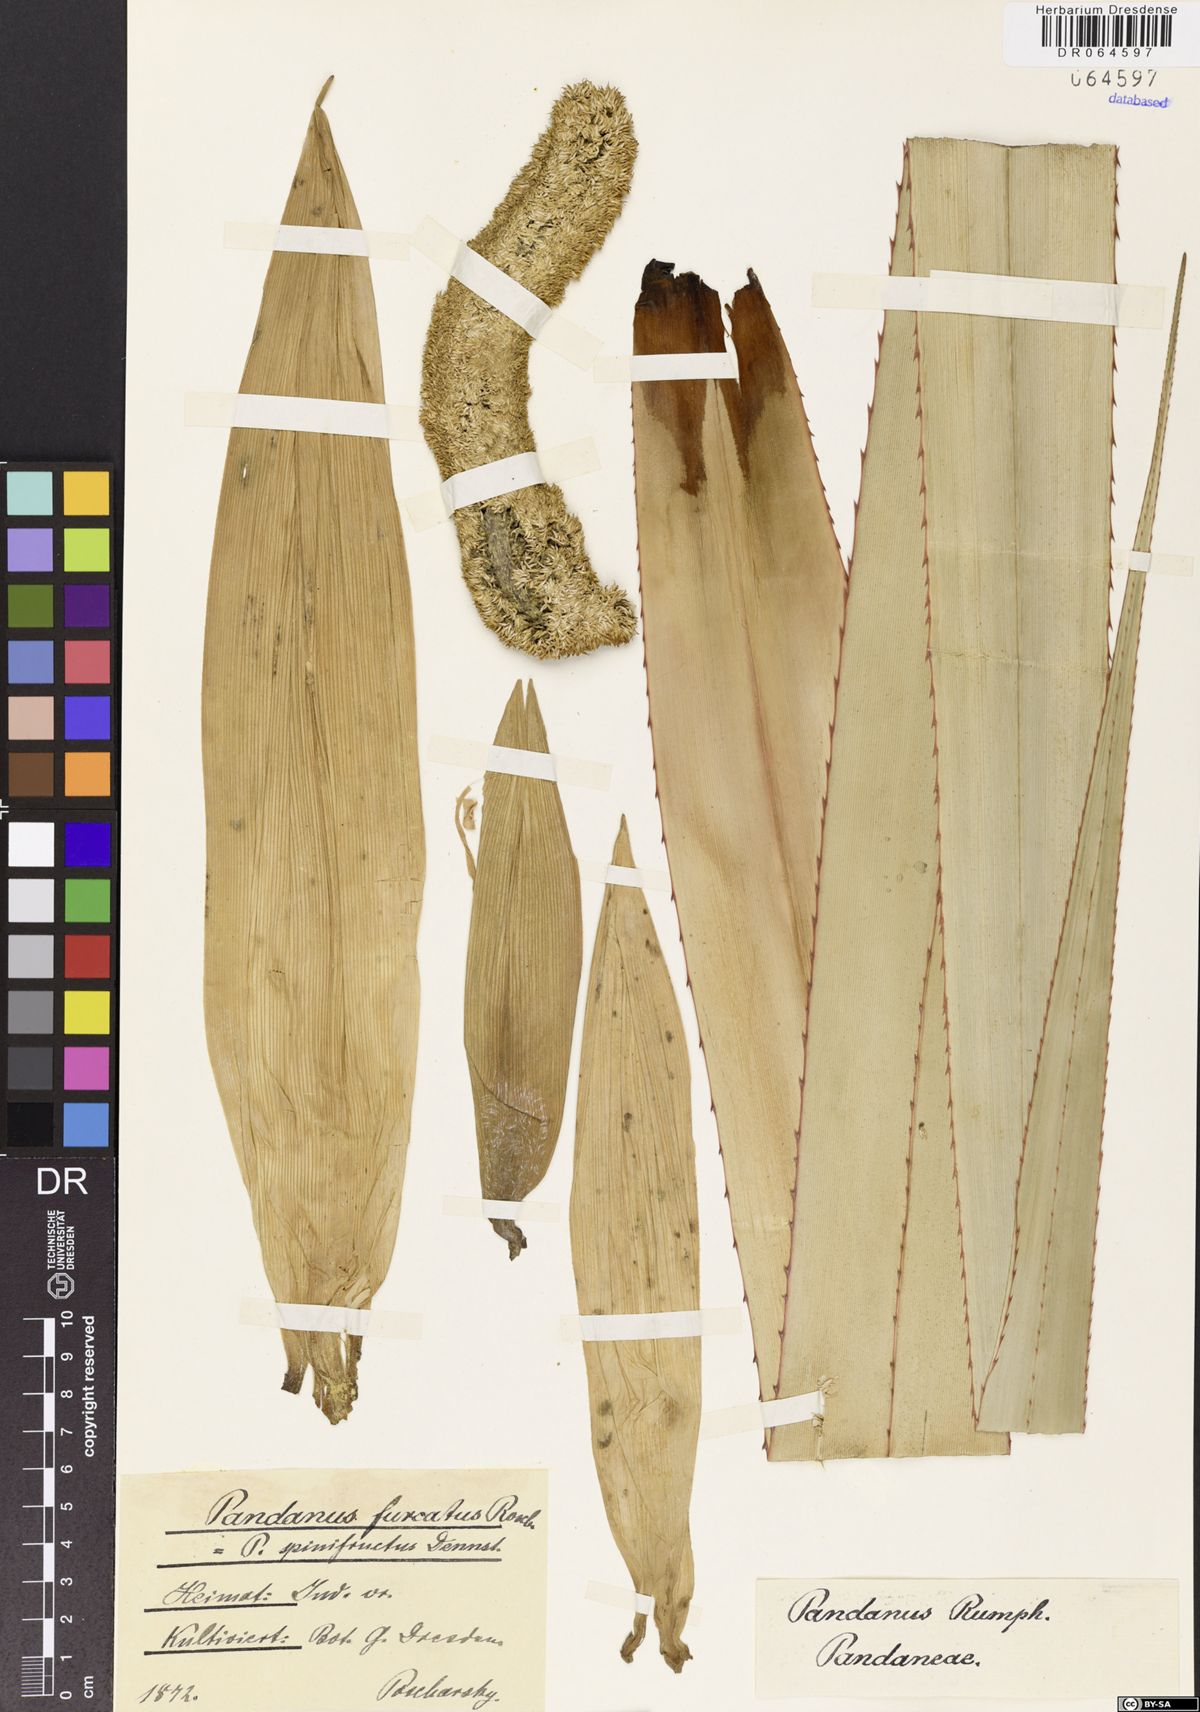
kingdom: Plantae
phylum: Tracheophyta
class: Liliopsida
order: Pandanales
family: Pandanaceae
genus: Pandanus
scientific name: Pandanus furcatus
